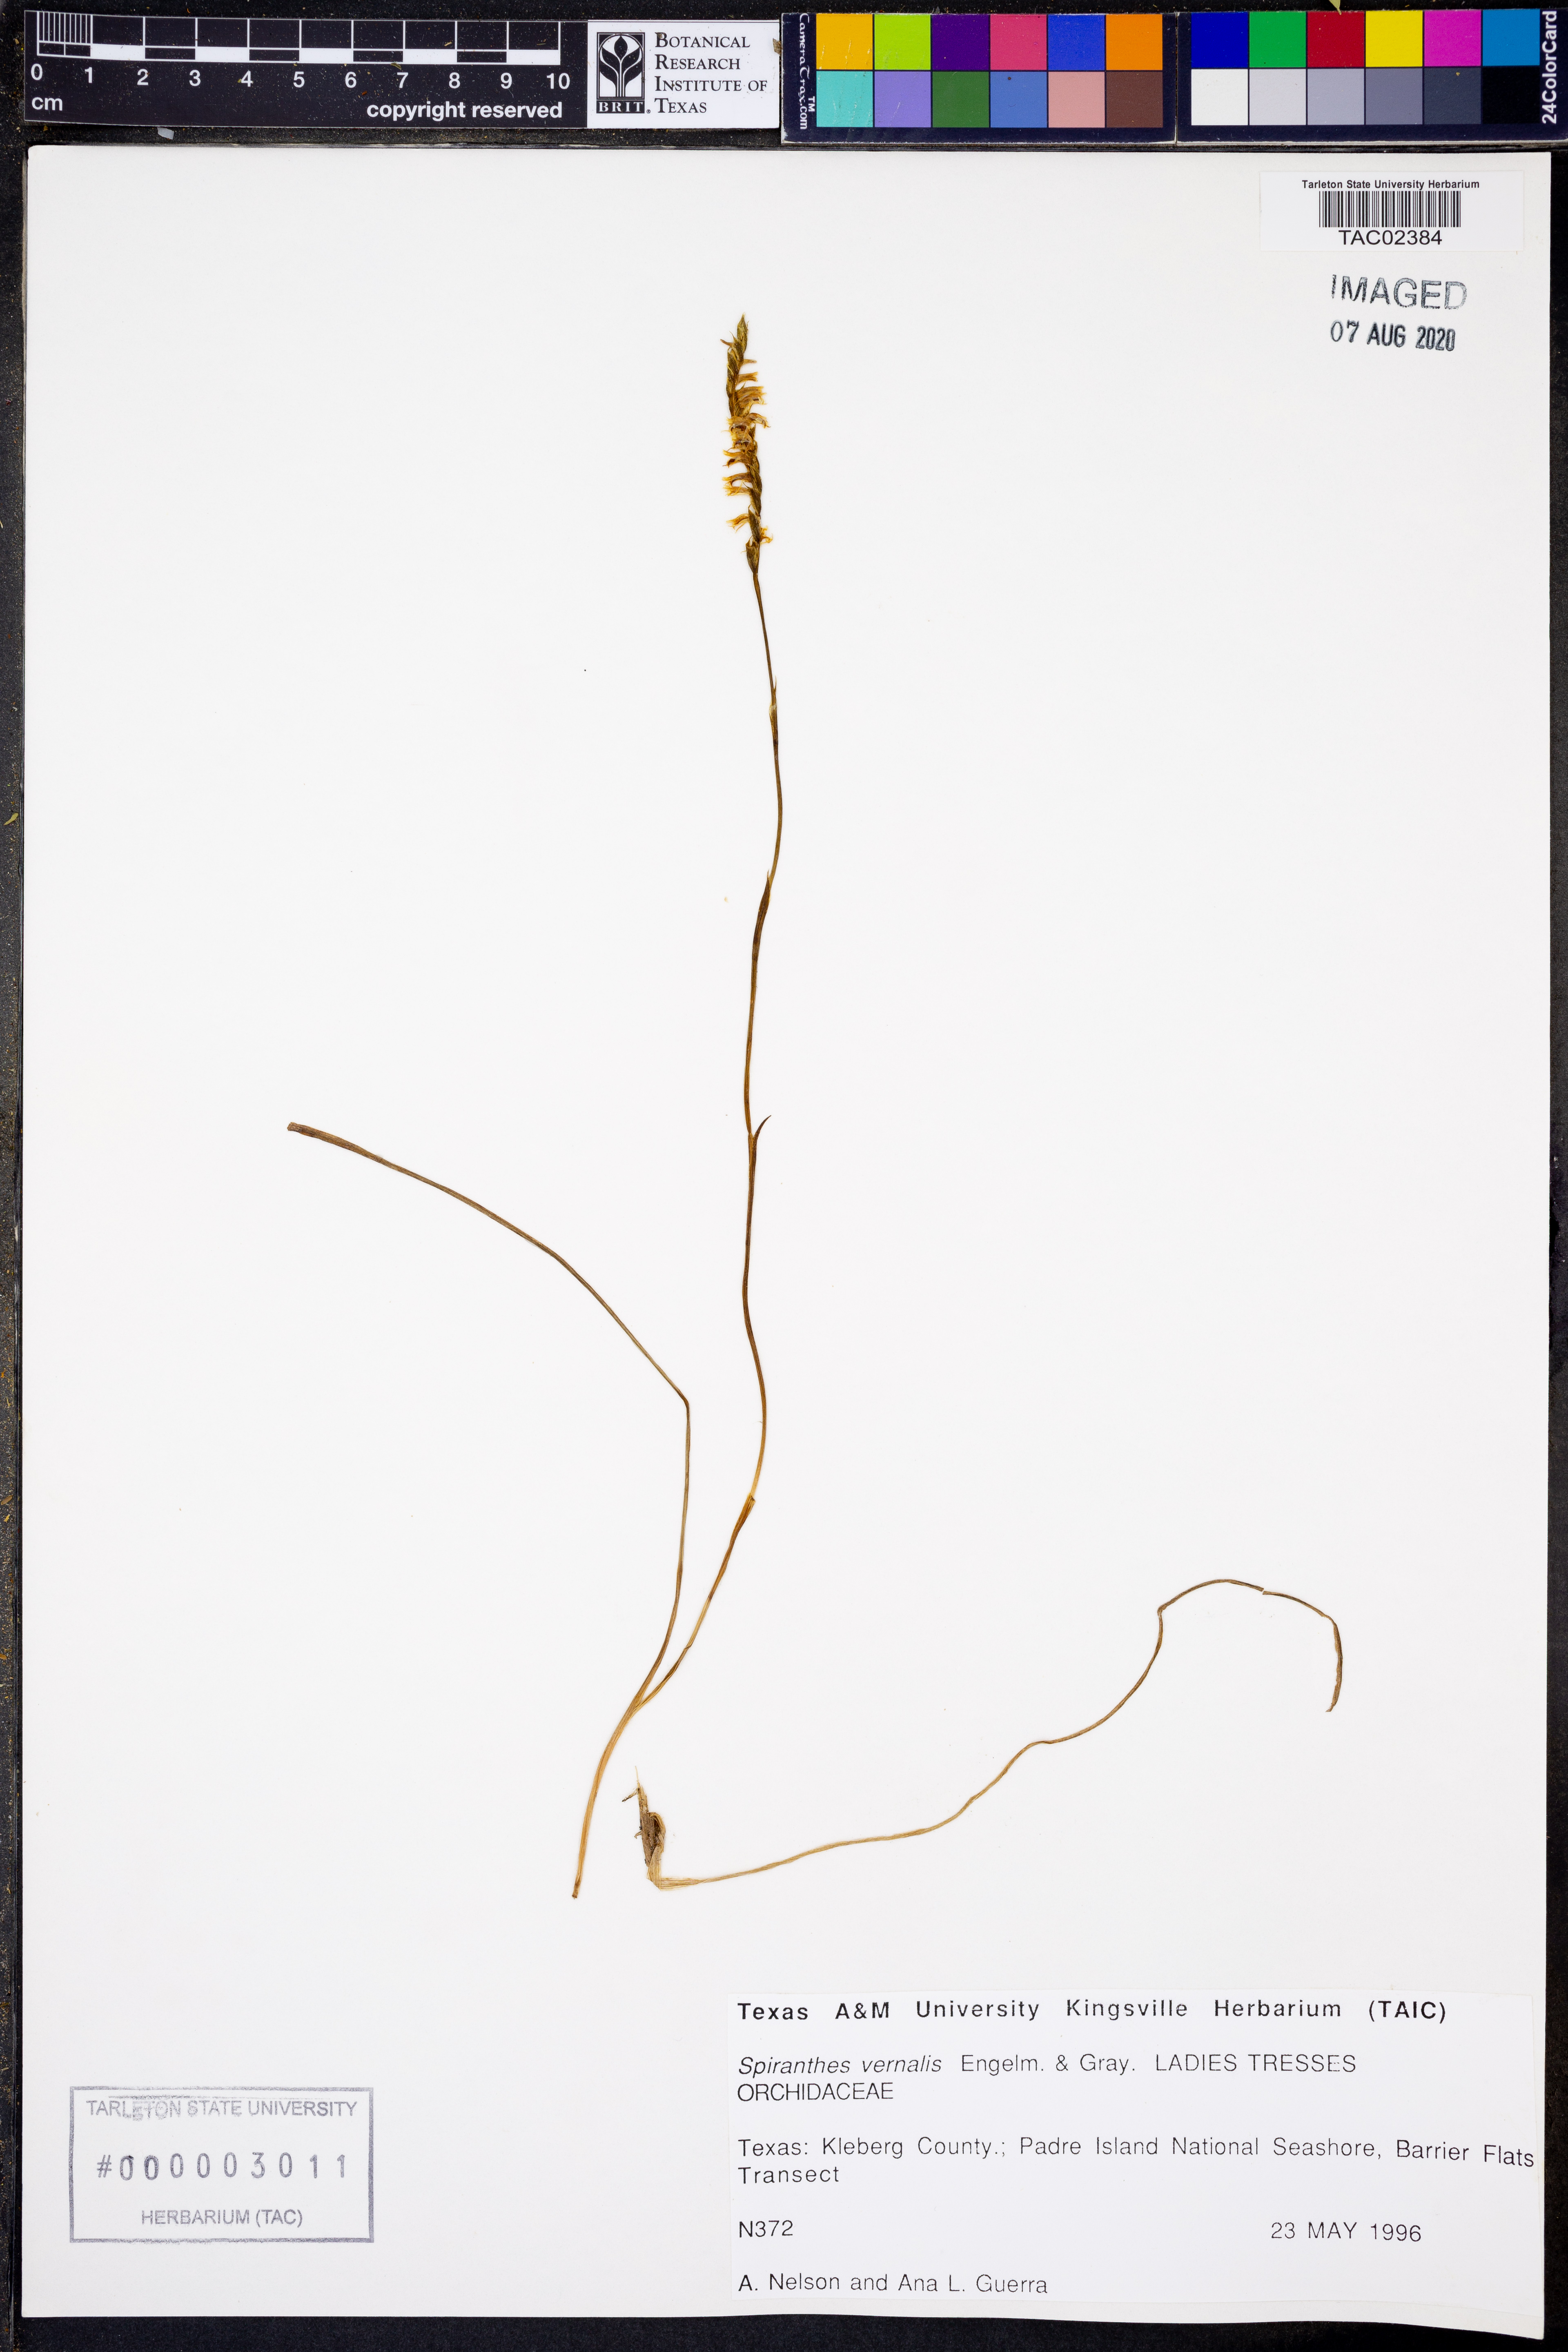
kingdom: Plantae
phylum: Tracheophyta
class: Liliopsida
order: Asparagales
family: Orchidaceae
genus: Spiranthes
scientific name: Spiranthes vernalis
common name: Spring ladies'-tresses
